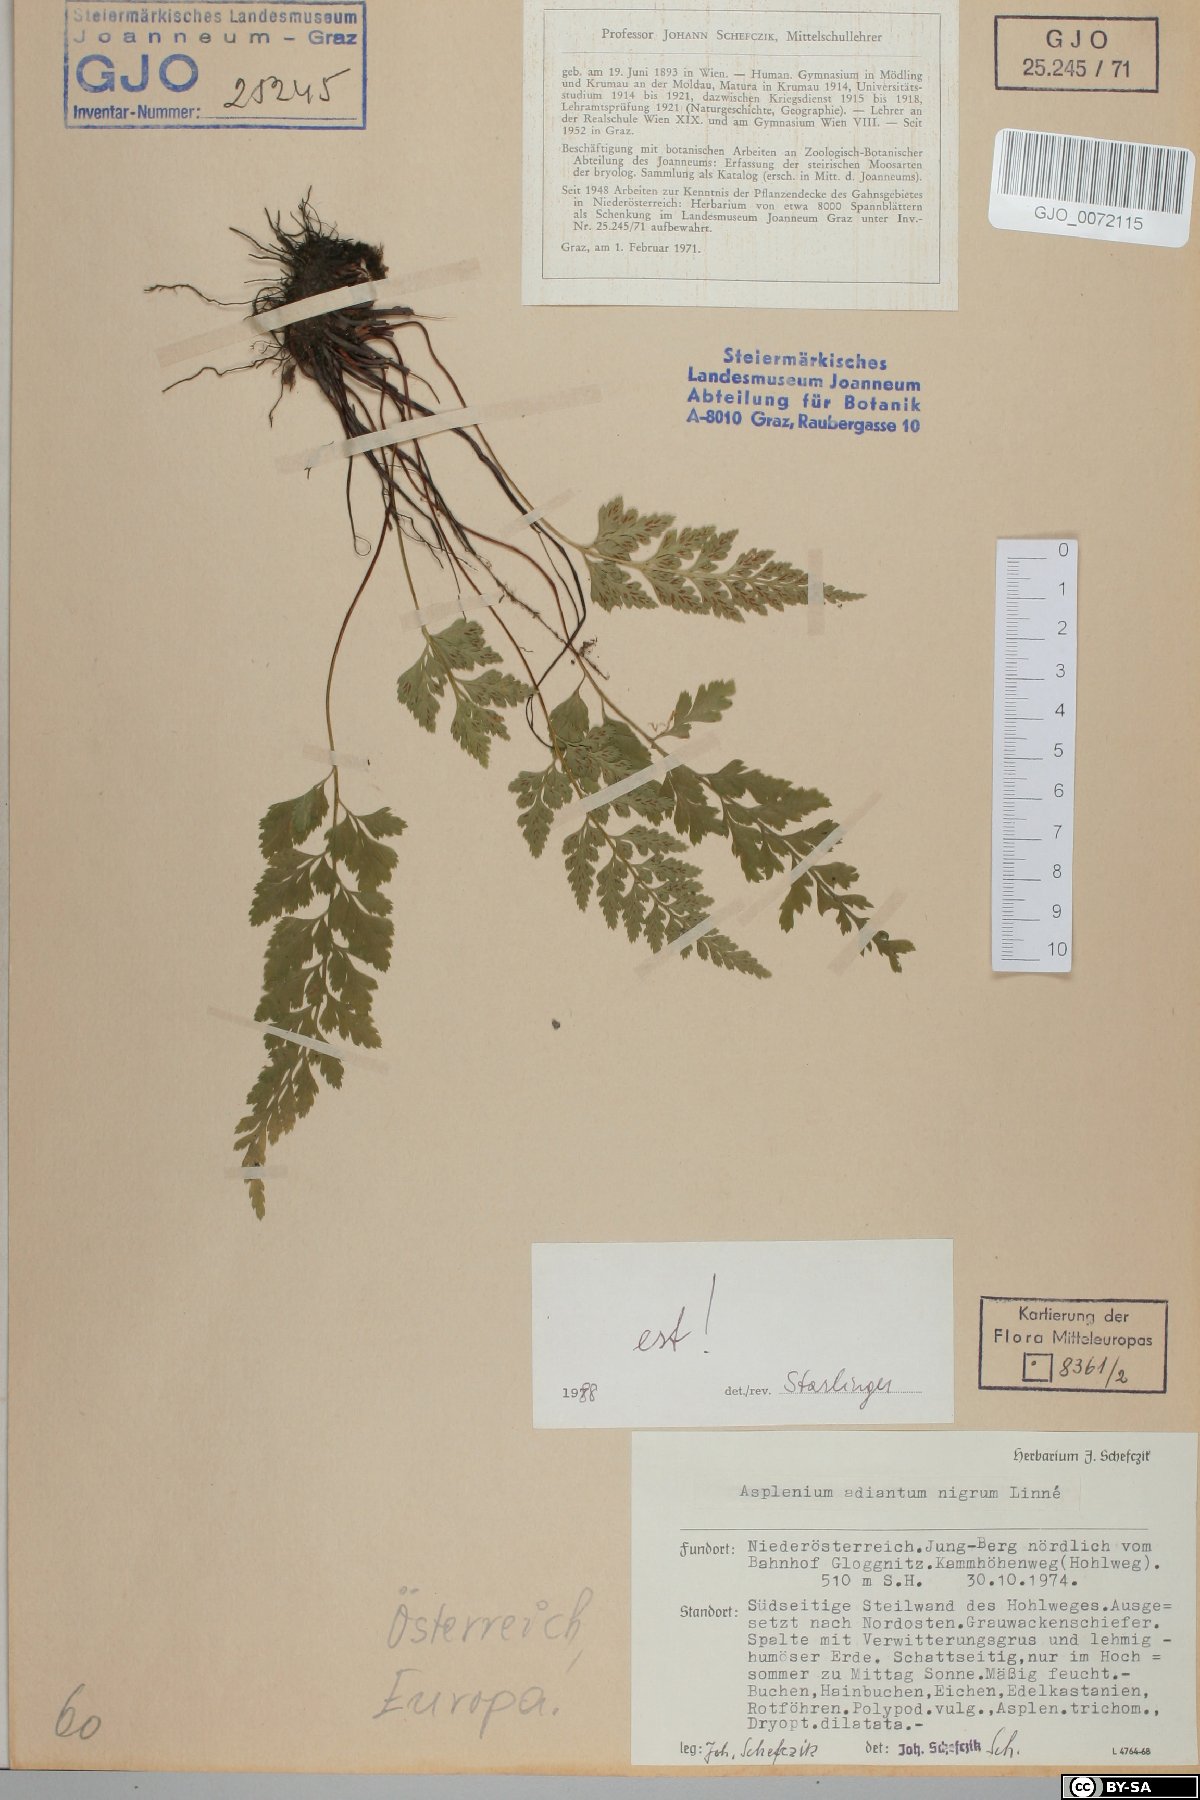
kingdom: Plantae
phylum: Tracheophyta
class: Polypodiopsida
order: Polypodiales
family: Aspleniaceae
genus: Asplenium
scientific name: Asplenium adiantum-nigrum
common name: Black spleenwort
